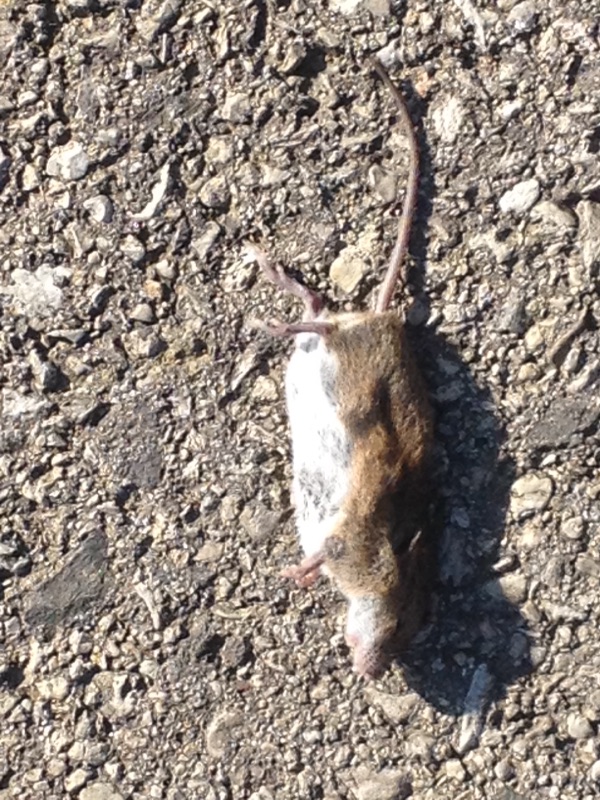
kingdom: Animalia
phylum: Chordata
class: Mammalia
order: Rodentia
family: Muridae
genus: Apodemus
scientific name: Apodemus
